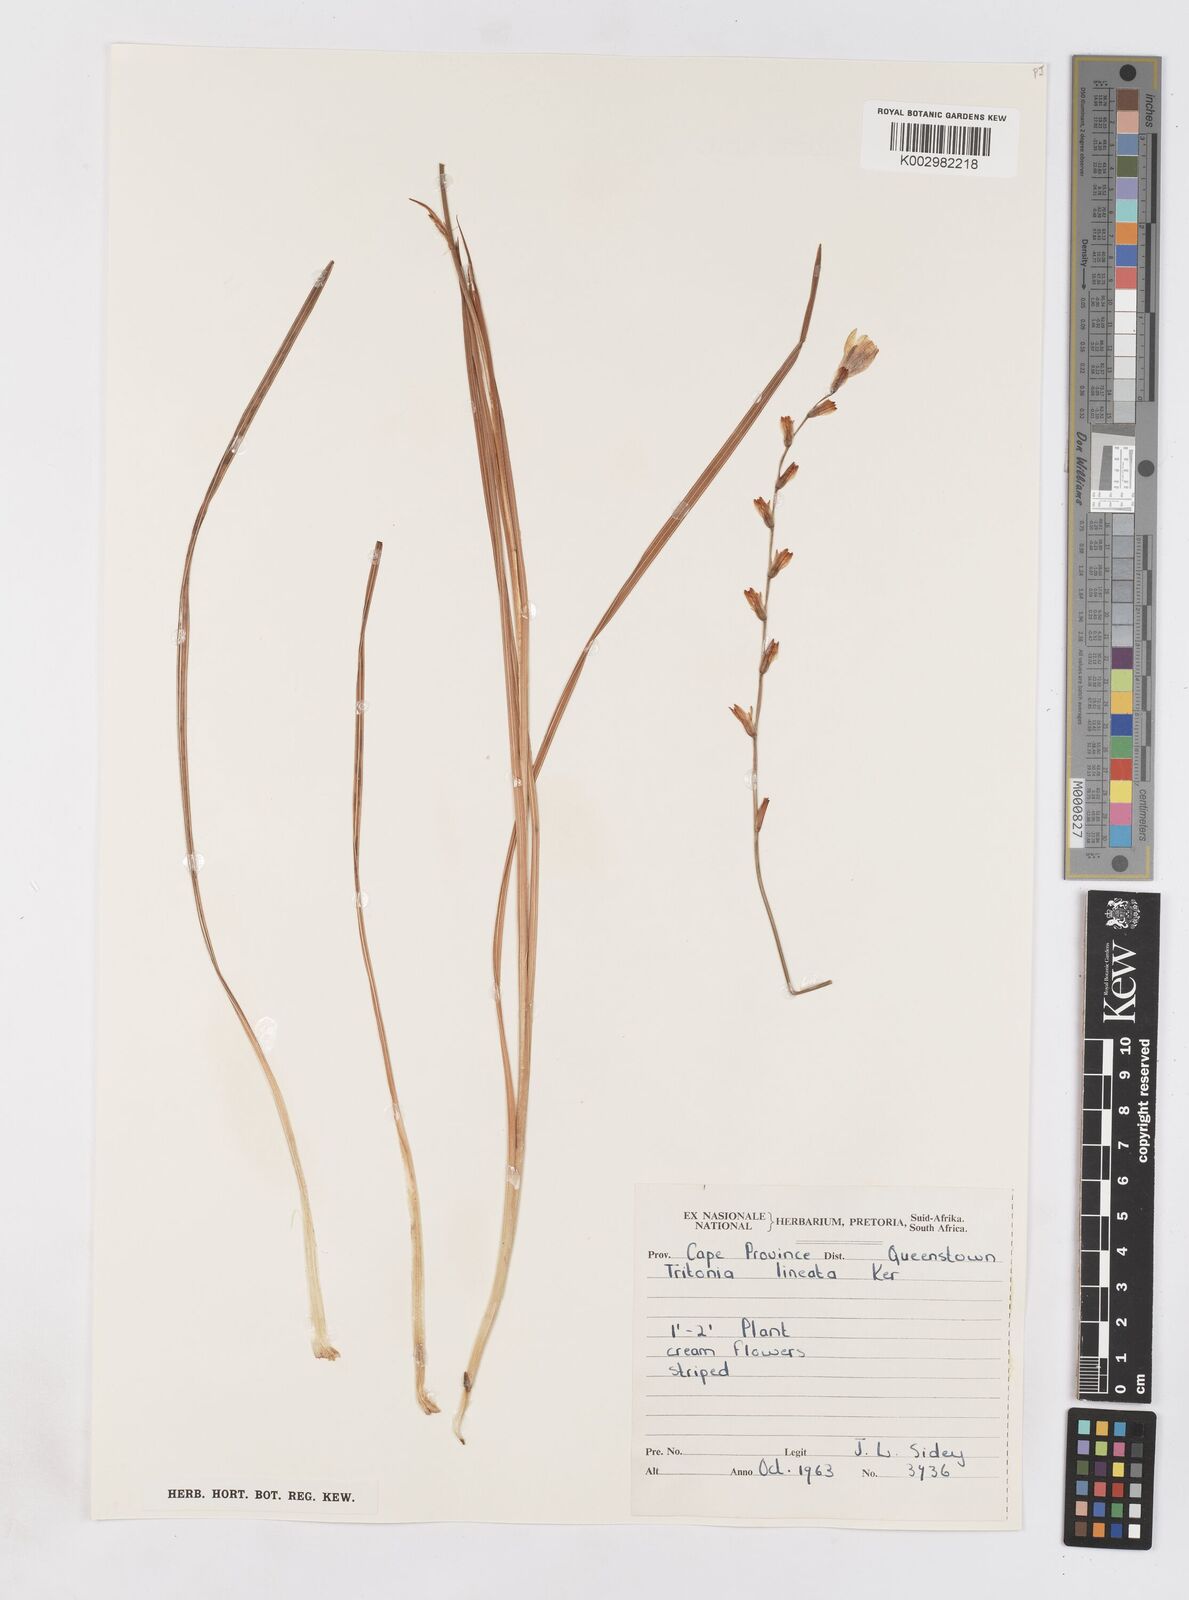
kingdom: Plantae
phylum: Tracheophyta
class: Liliopsida
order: Asparagales
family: Iridaceae
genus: Tritonia
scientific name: Tritonia gladiolaris
